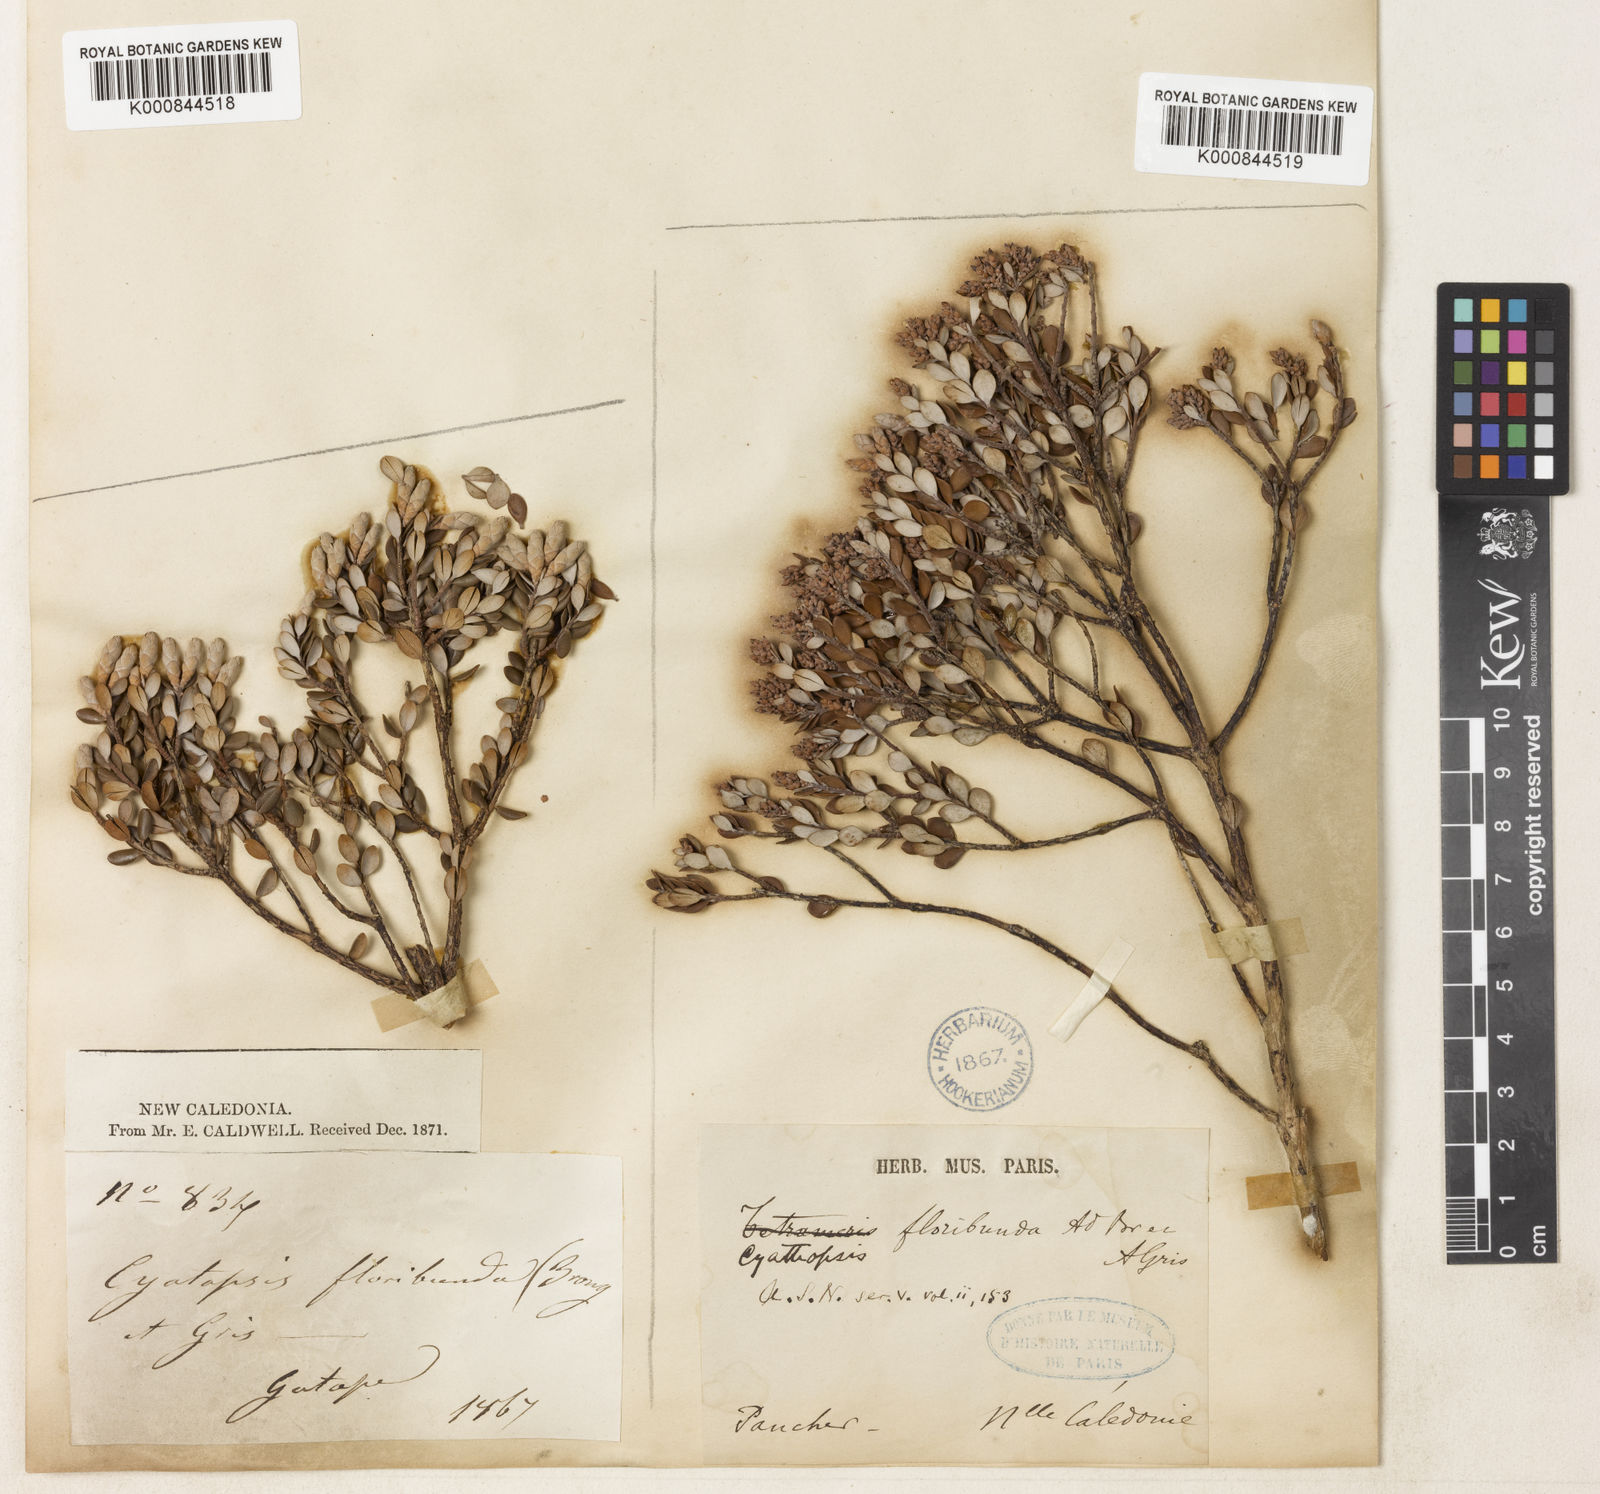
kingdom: Plantae
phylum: Tracheophyta
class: Magnoliopsida
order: Ericales
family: Ericaceae
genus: Cyathopsis
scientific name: Cyathopsis floribunda
